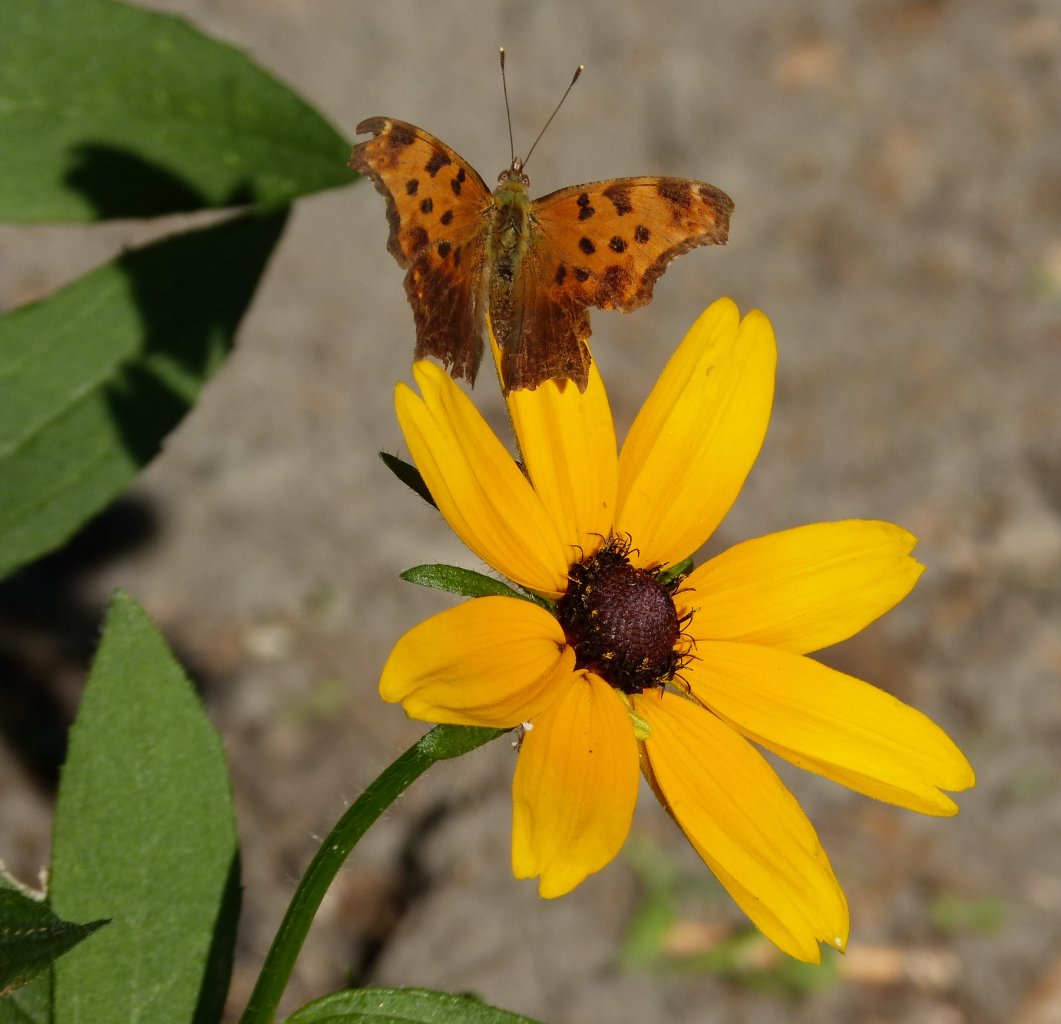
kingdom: Animalia
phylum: Arthropoda
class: Insecta
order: Lepidoptera
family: Nymphalidae
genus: Polygonia
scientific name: Polygonia comma
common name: Eastern Comma
